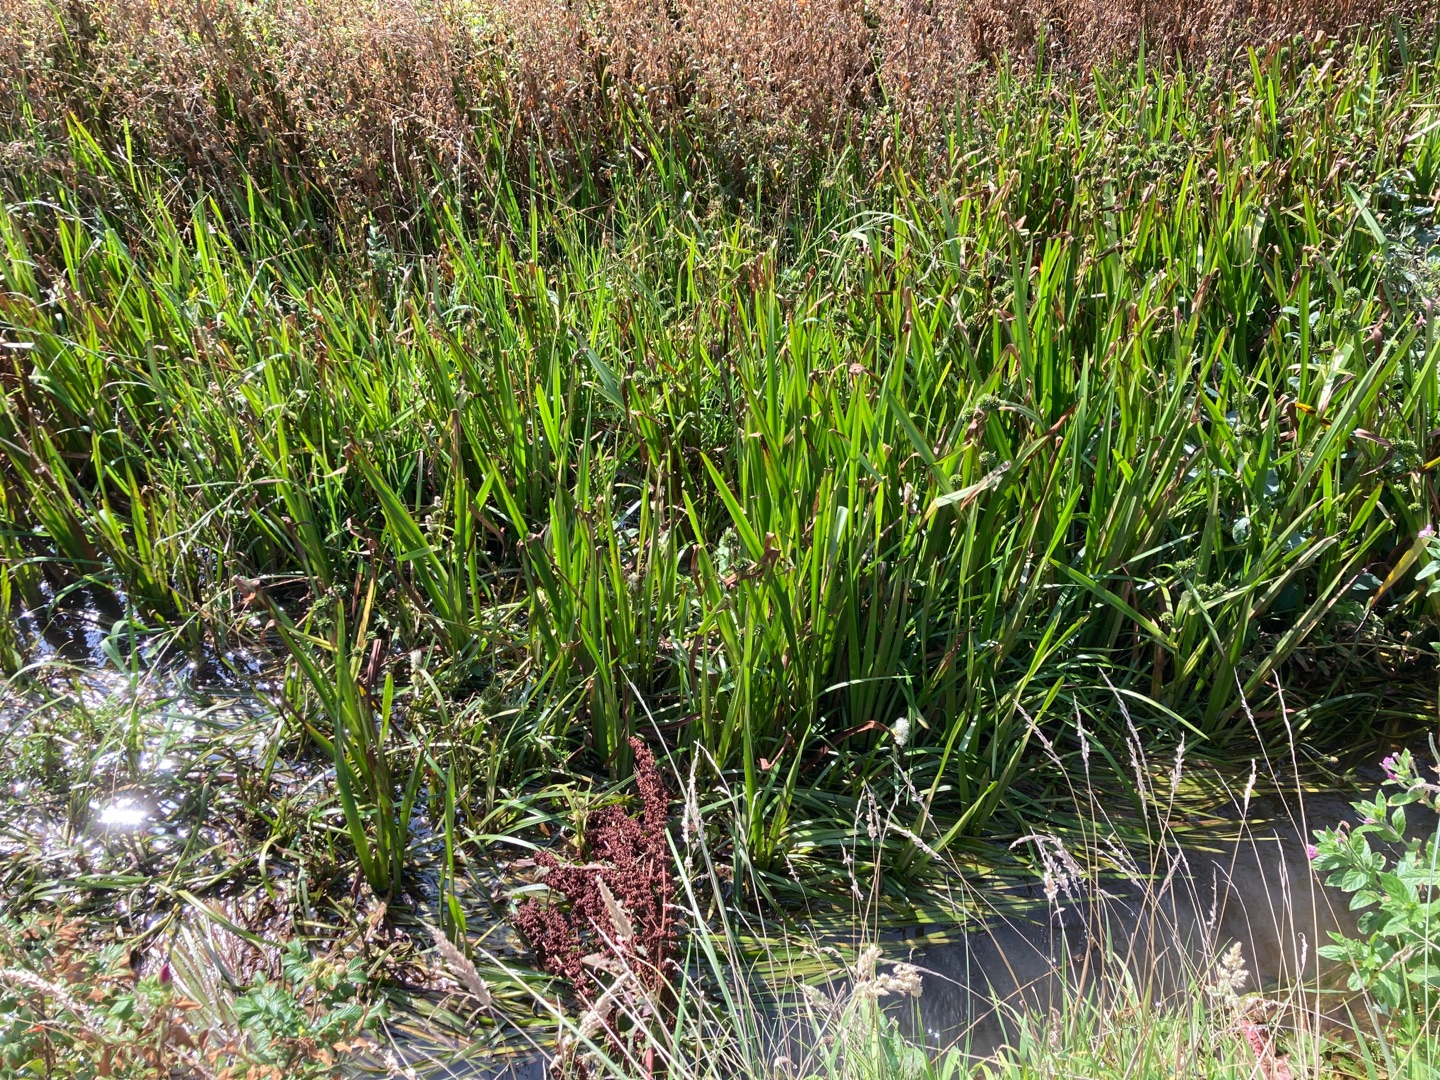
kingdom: Plantae
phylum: Tracheophyta
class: Liliopsida
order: Poales
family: Typhaceae
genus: Sparganium
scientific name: Sparganium erectum
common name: Grenet pindsvineknop
